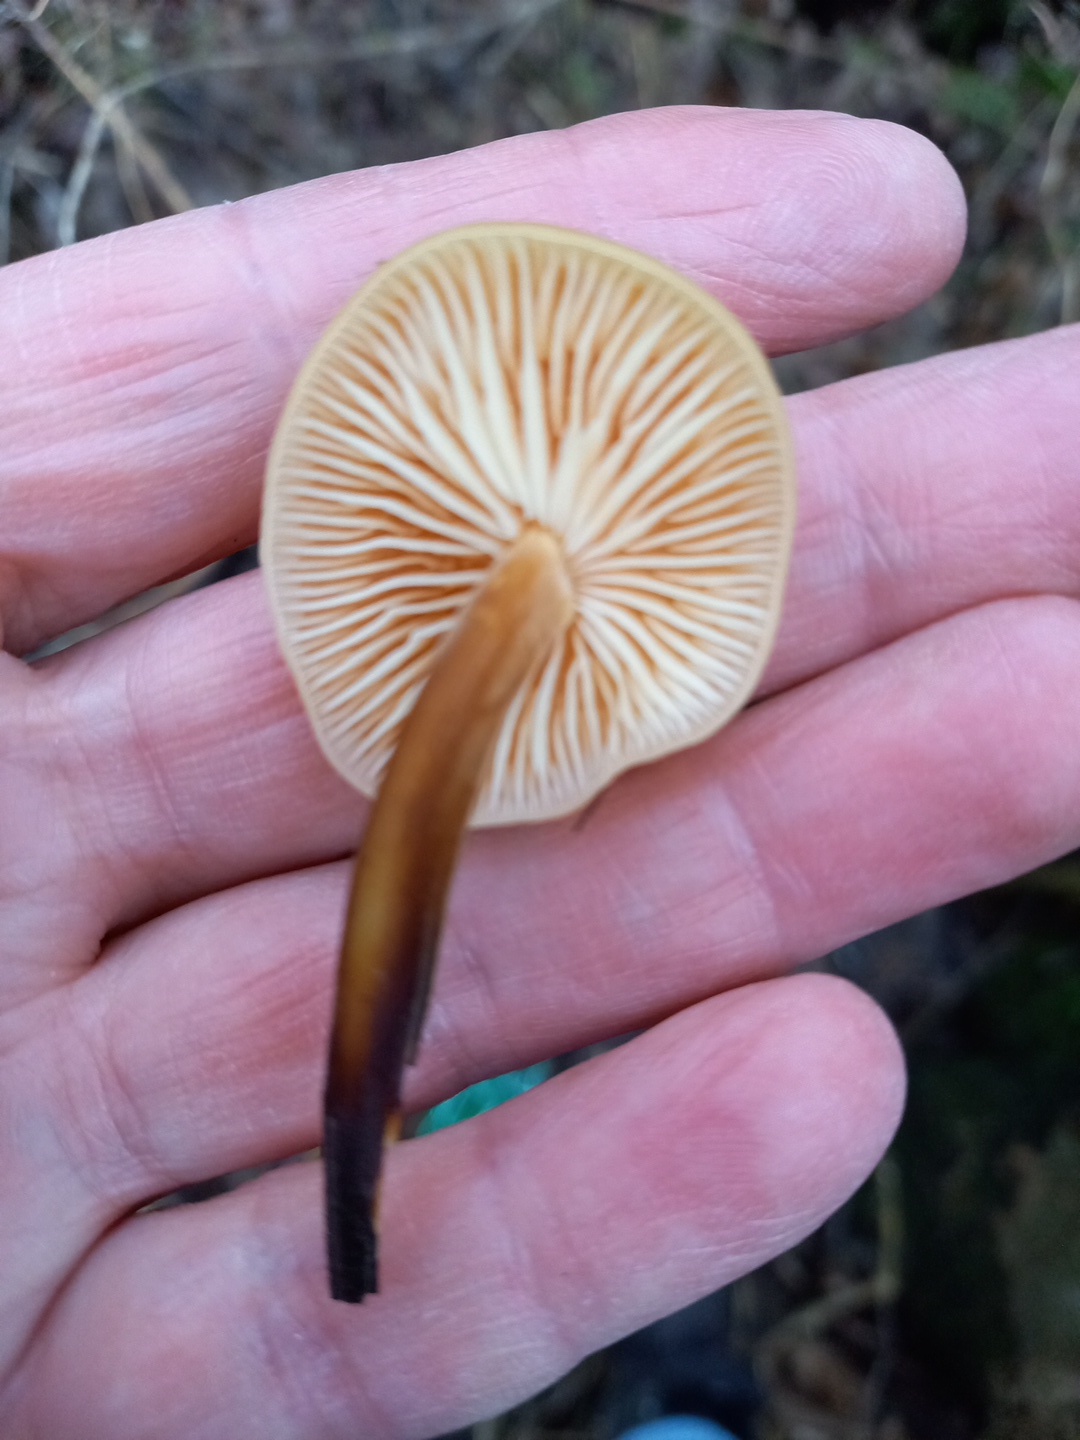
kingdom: Fungi
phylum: Basidiomycota
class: Agaricomycetes
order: Agaricales
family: Physalacriaceae
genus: Flammulina
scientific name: Flammulina velutipes
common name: gul fløjlsfod
